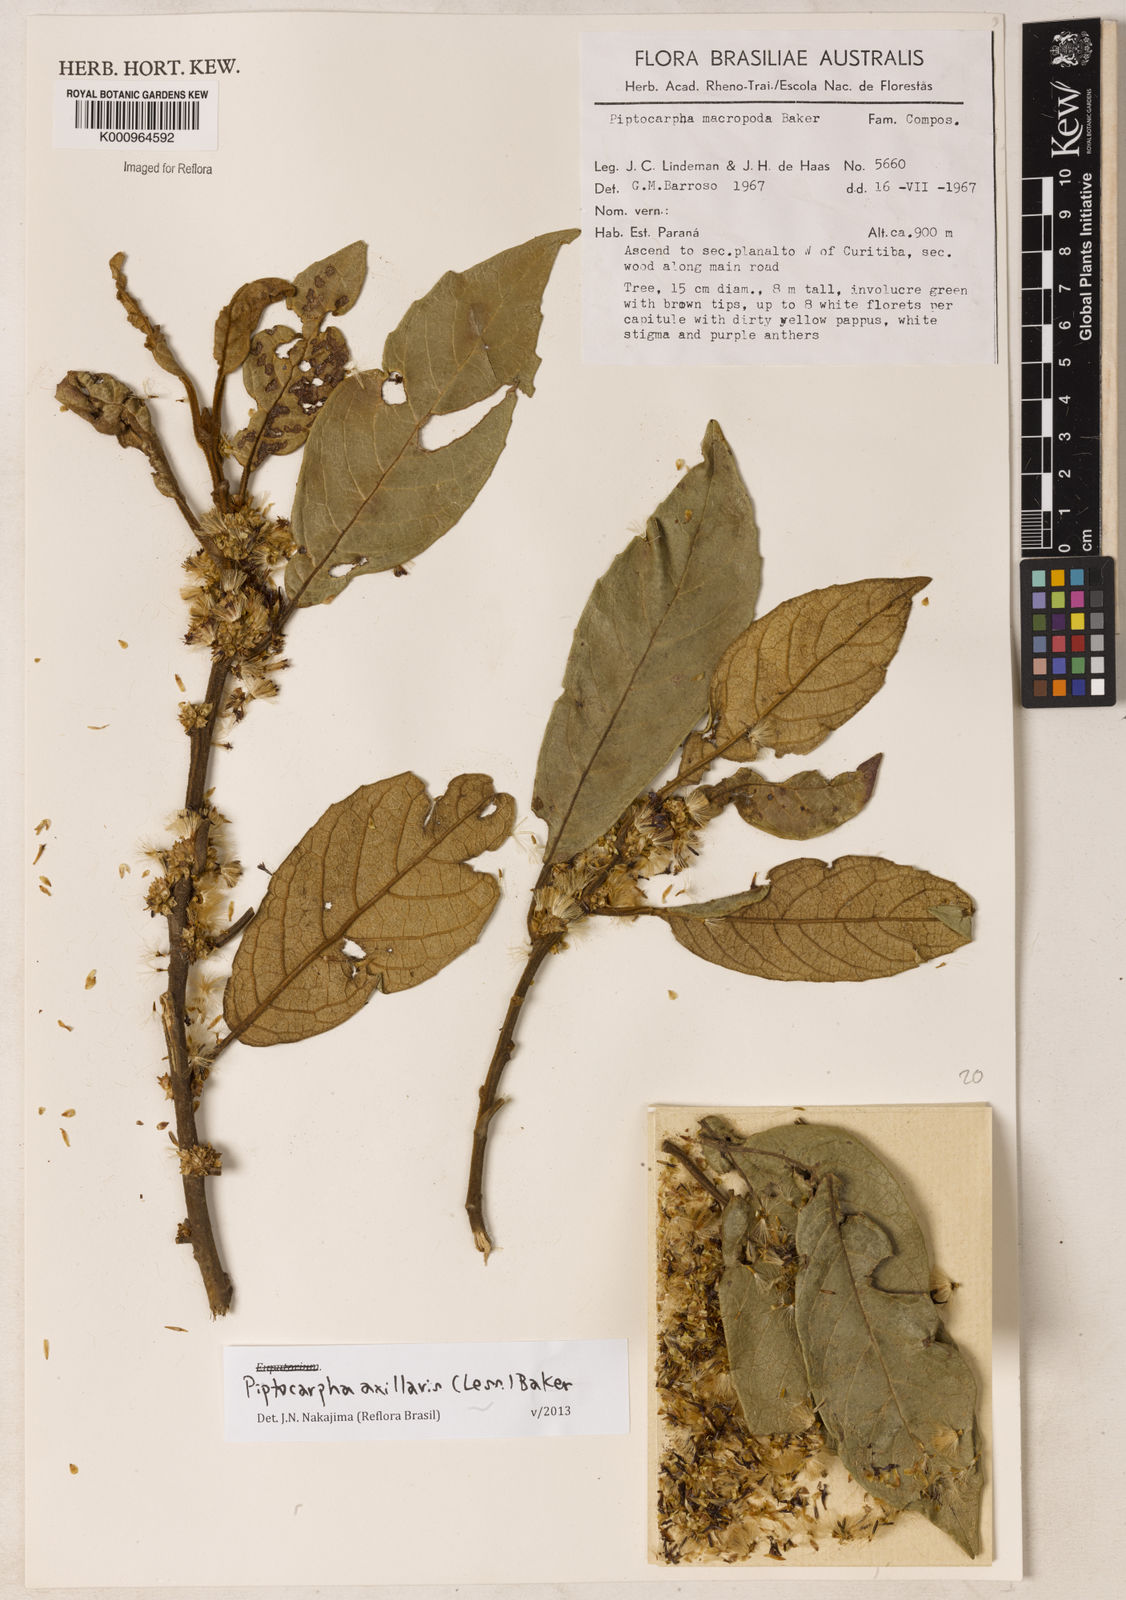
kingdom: Plantae
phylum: Tracheophyta
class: Magnoliopsida
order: Asterales
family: Asteraceae
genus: Piptocarpha
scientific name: Piptocarpha axillaris
